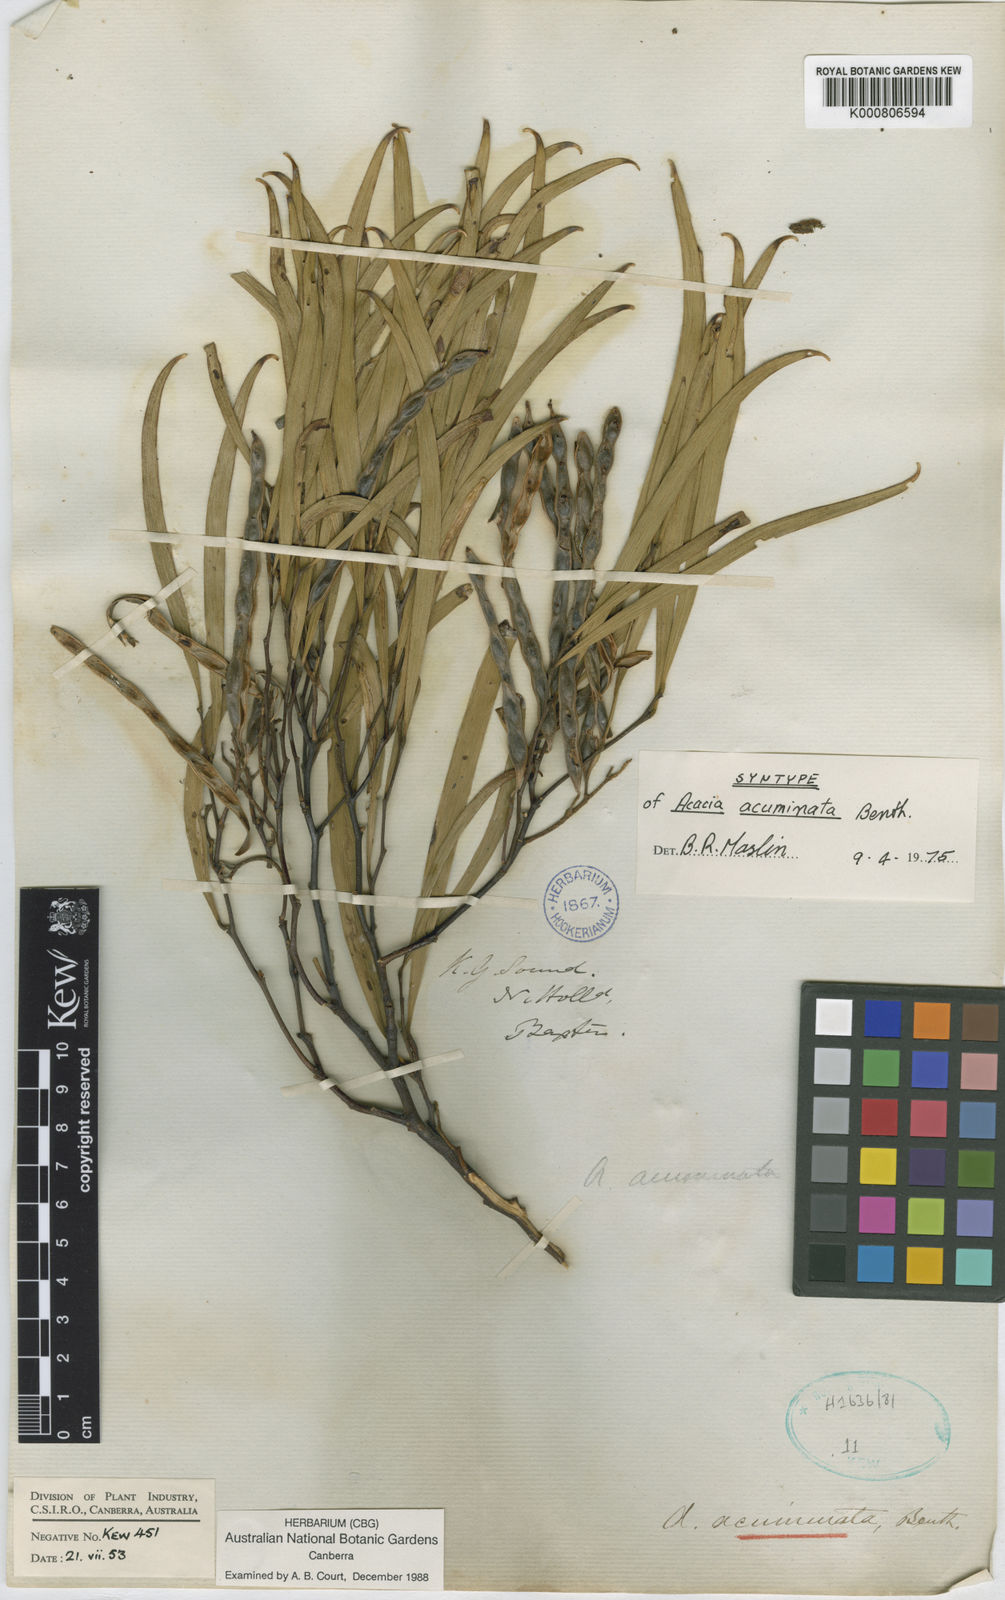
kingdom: Plantae
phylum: Tracheophyta
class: Magnoliopsida
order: Fabales
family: Fabaceae
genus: Acacia
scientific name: Acacia acuminata
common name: Jam wattle
